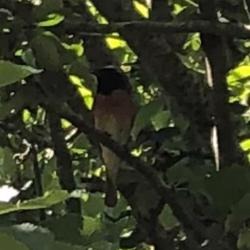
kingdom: Animalia
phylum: Chordata
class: Aves
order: Passeriformes
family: Muscicapidae
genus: Phoenicurus
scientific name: Phoenicurus phoenicurus
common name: Rødstjert
